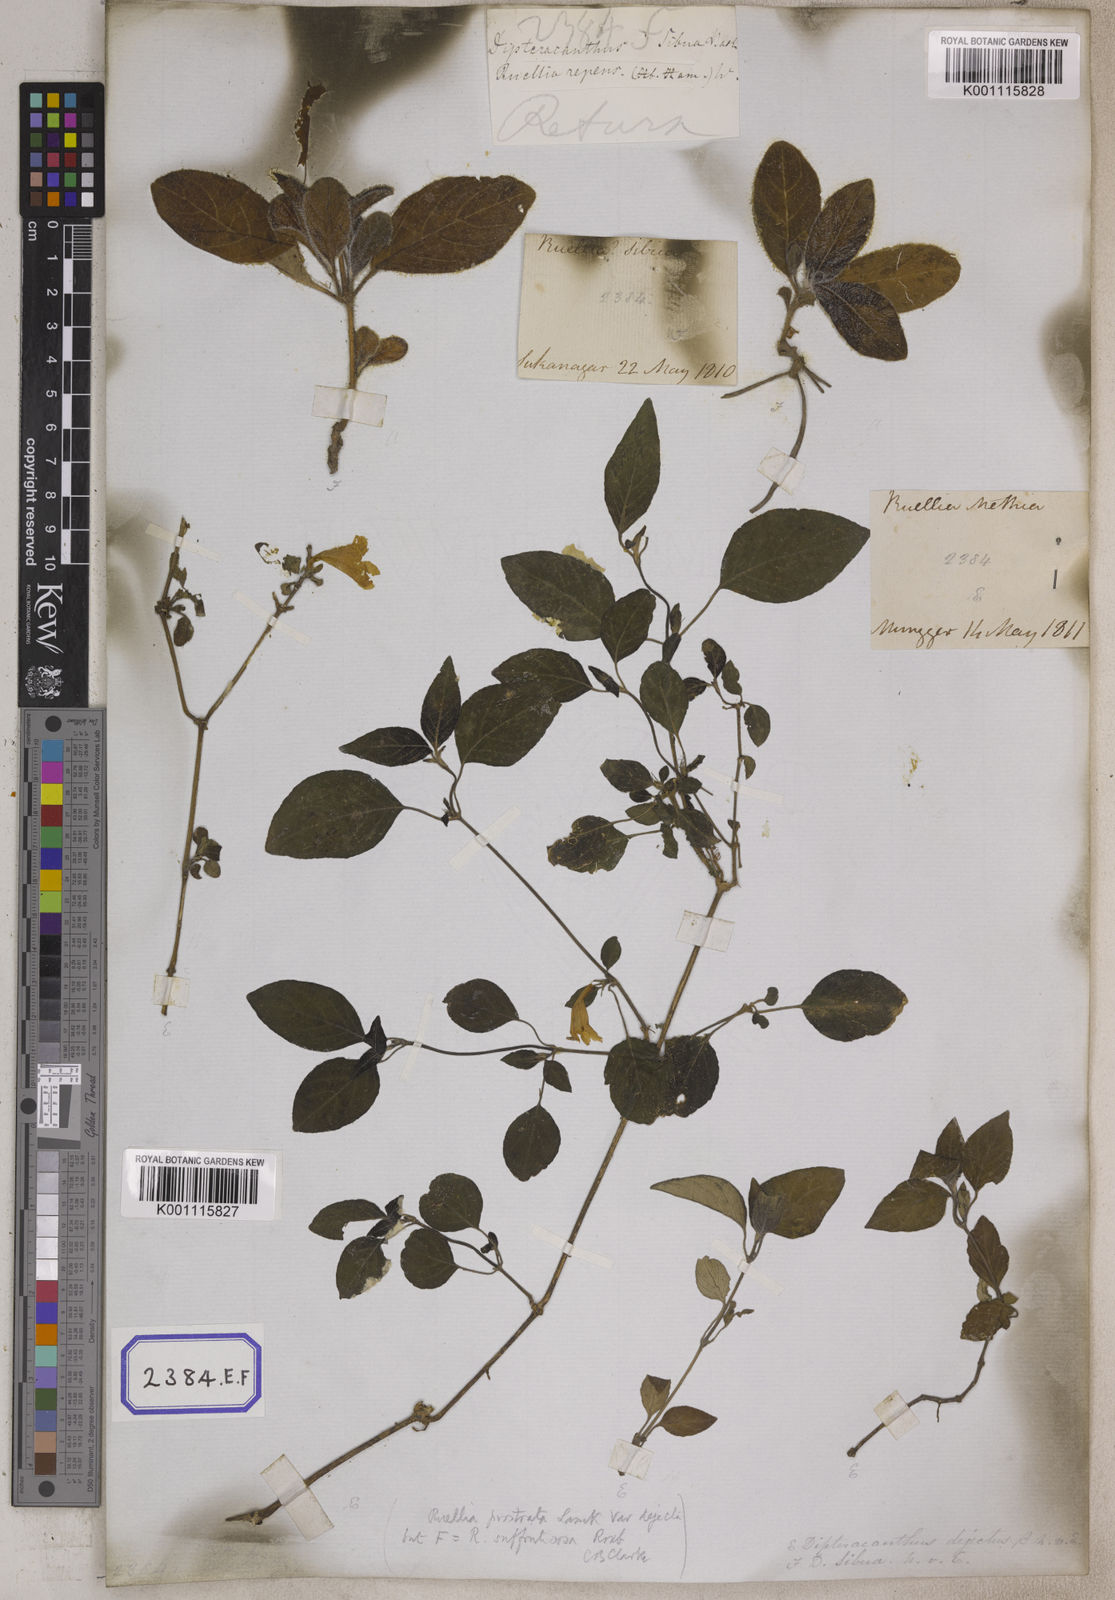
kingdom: Plantae
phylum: Tracheophyta
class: Magnoliopsida
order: Lamiales
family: Acanthaceae
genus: Ruellia
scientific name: Ruellia prostrata
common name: Prostrate wild petunia
